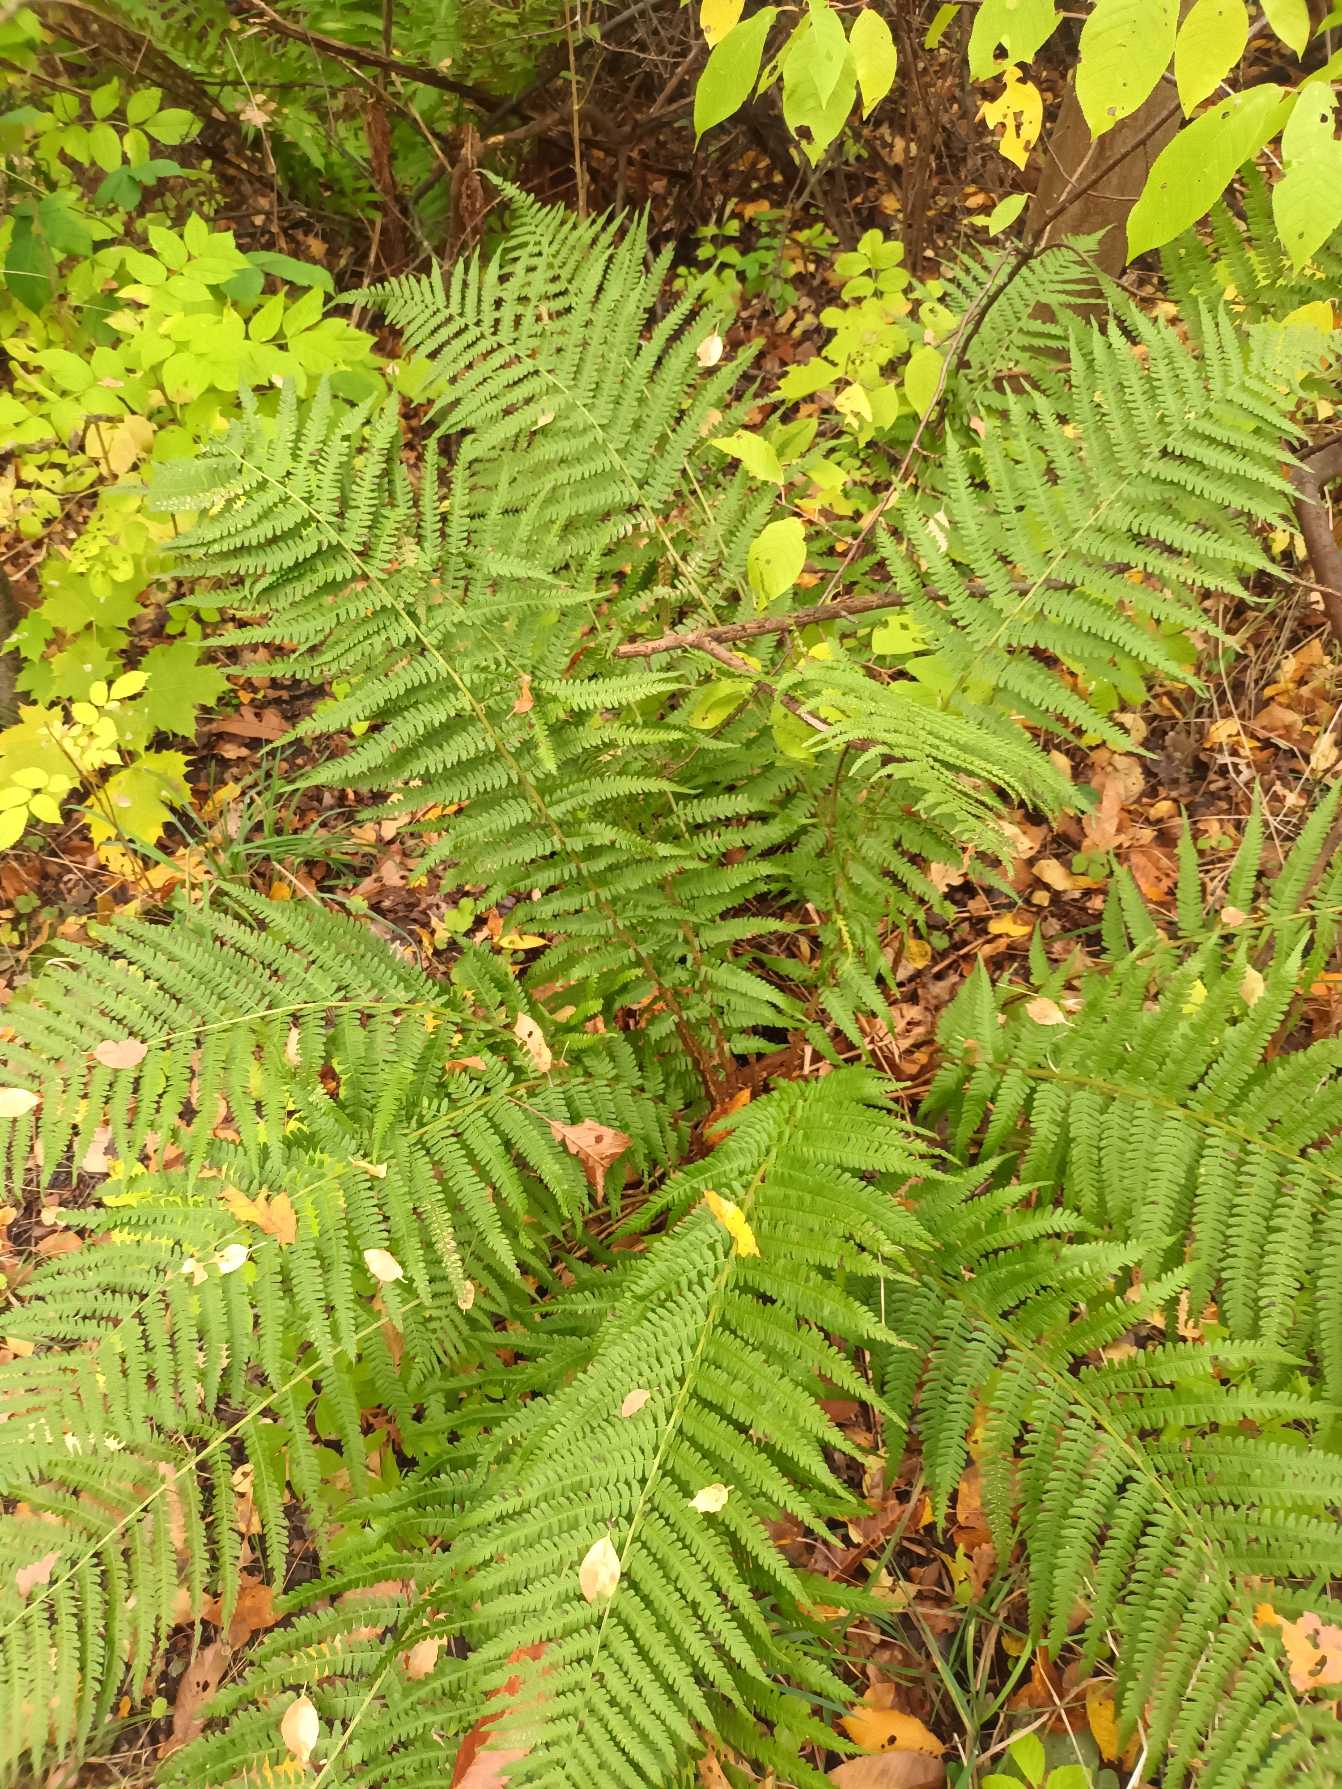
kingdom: Plantae
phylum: Tracheophyta
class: Polypodiopsida
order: Polypodiales
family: Dryopteridaceae
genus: Dryopteris
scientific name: Dryopteris filix-mas
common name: Almindelig mangeløv
